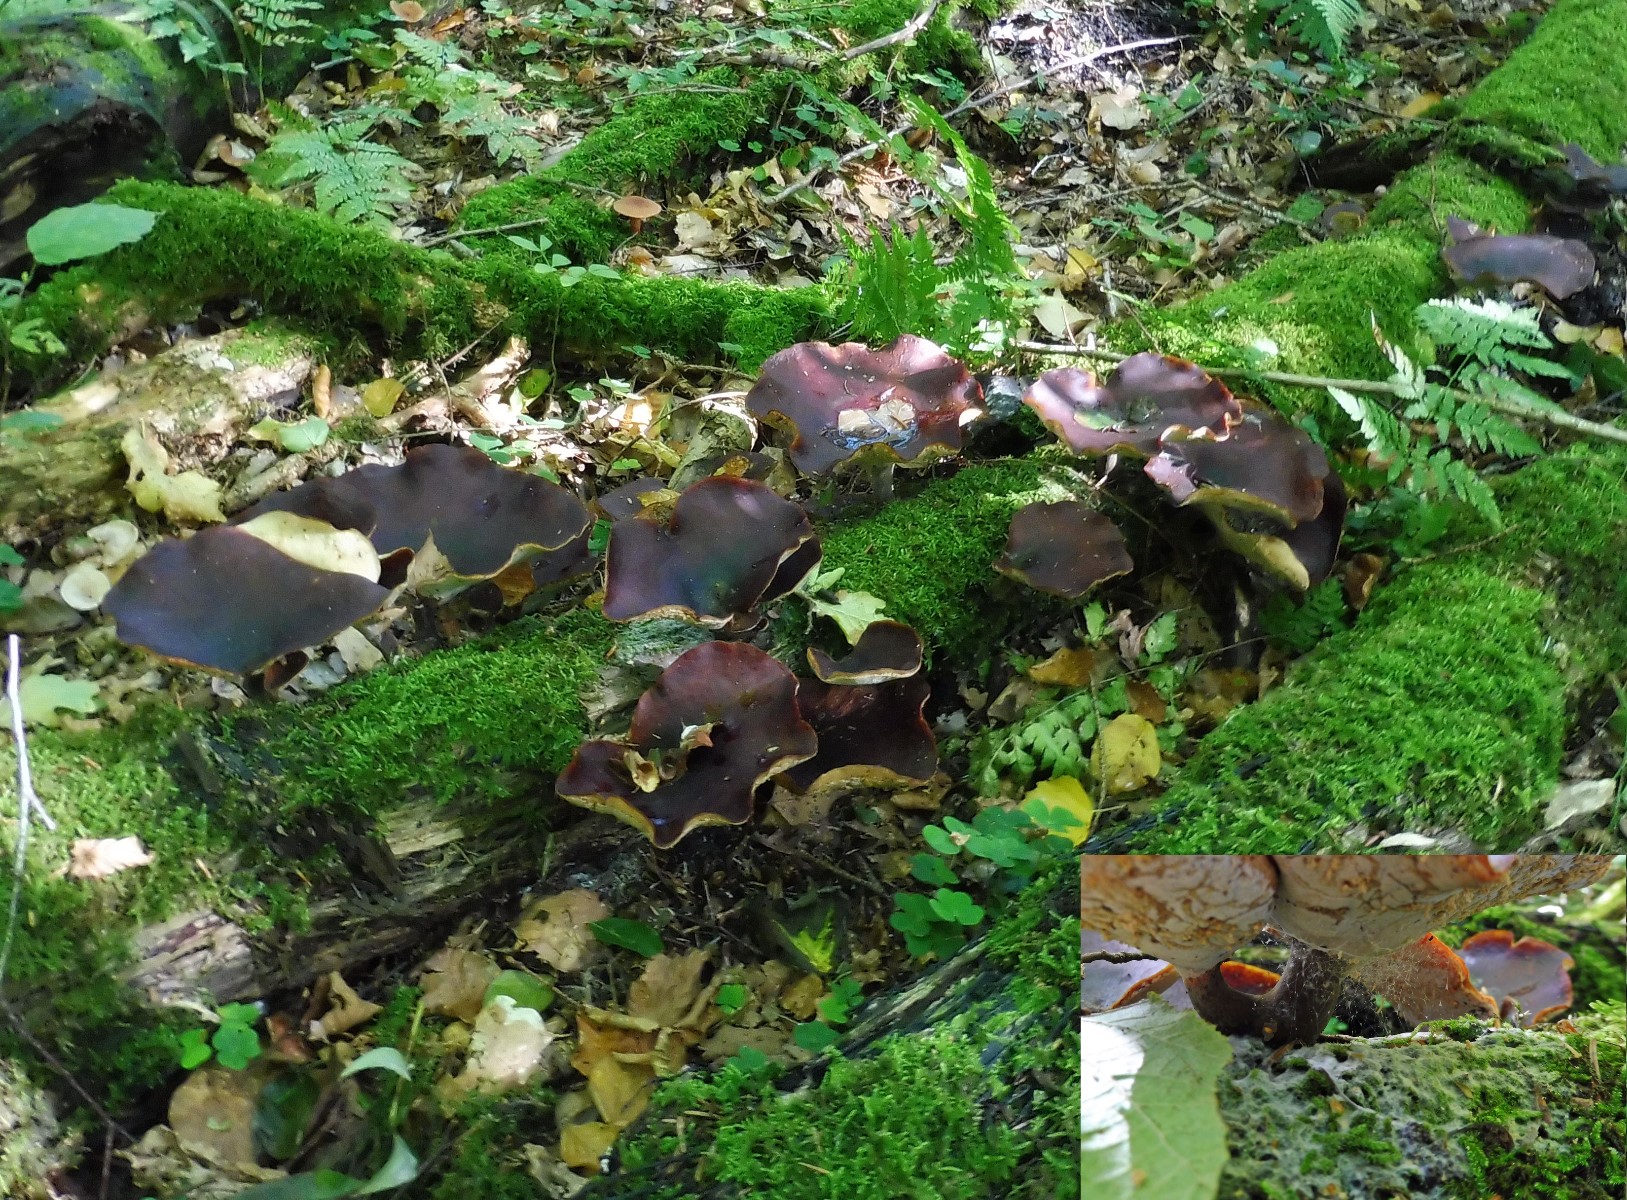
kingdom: Fungi
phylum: Basidiomycota
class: Agaricomycetes
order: Polyporales
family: Polyporaceae
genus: Picipes
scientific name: Picipes badius
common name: kastaniebrun stilkporesvamp
